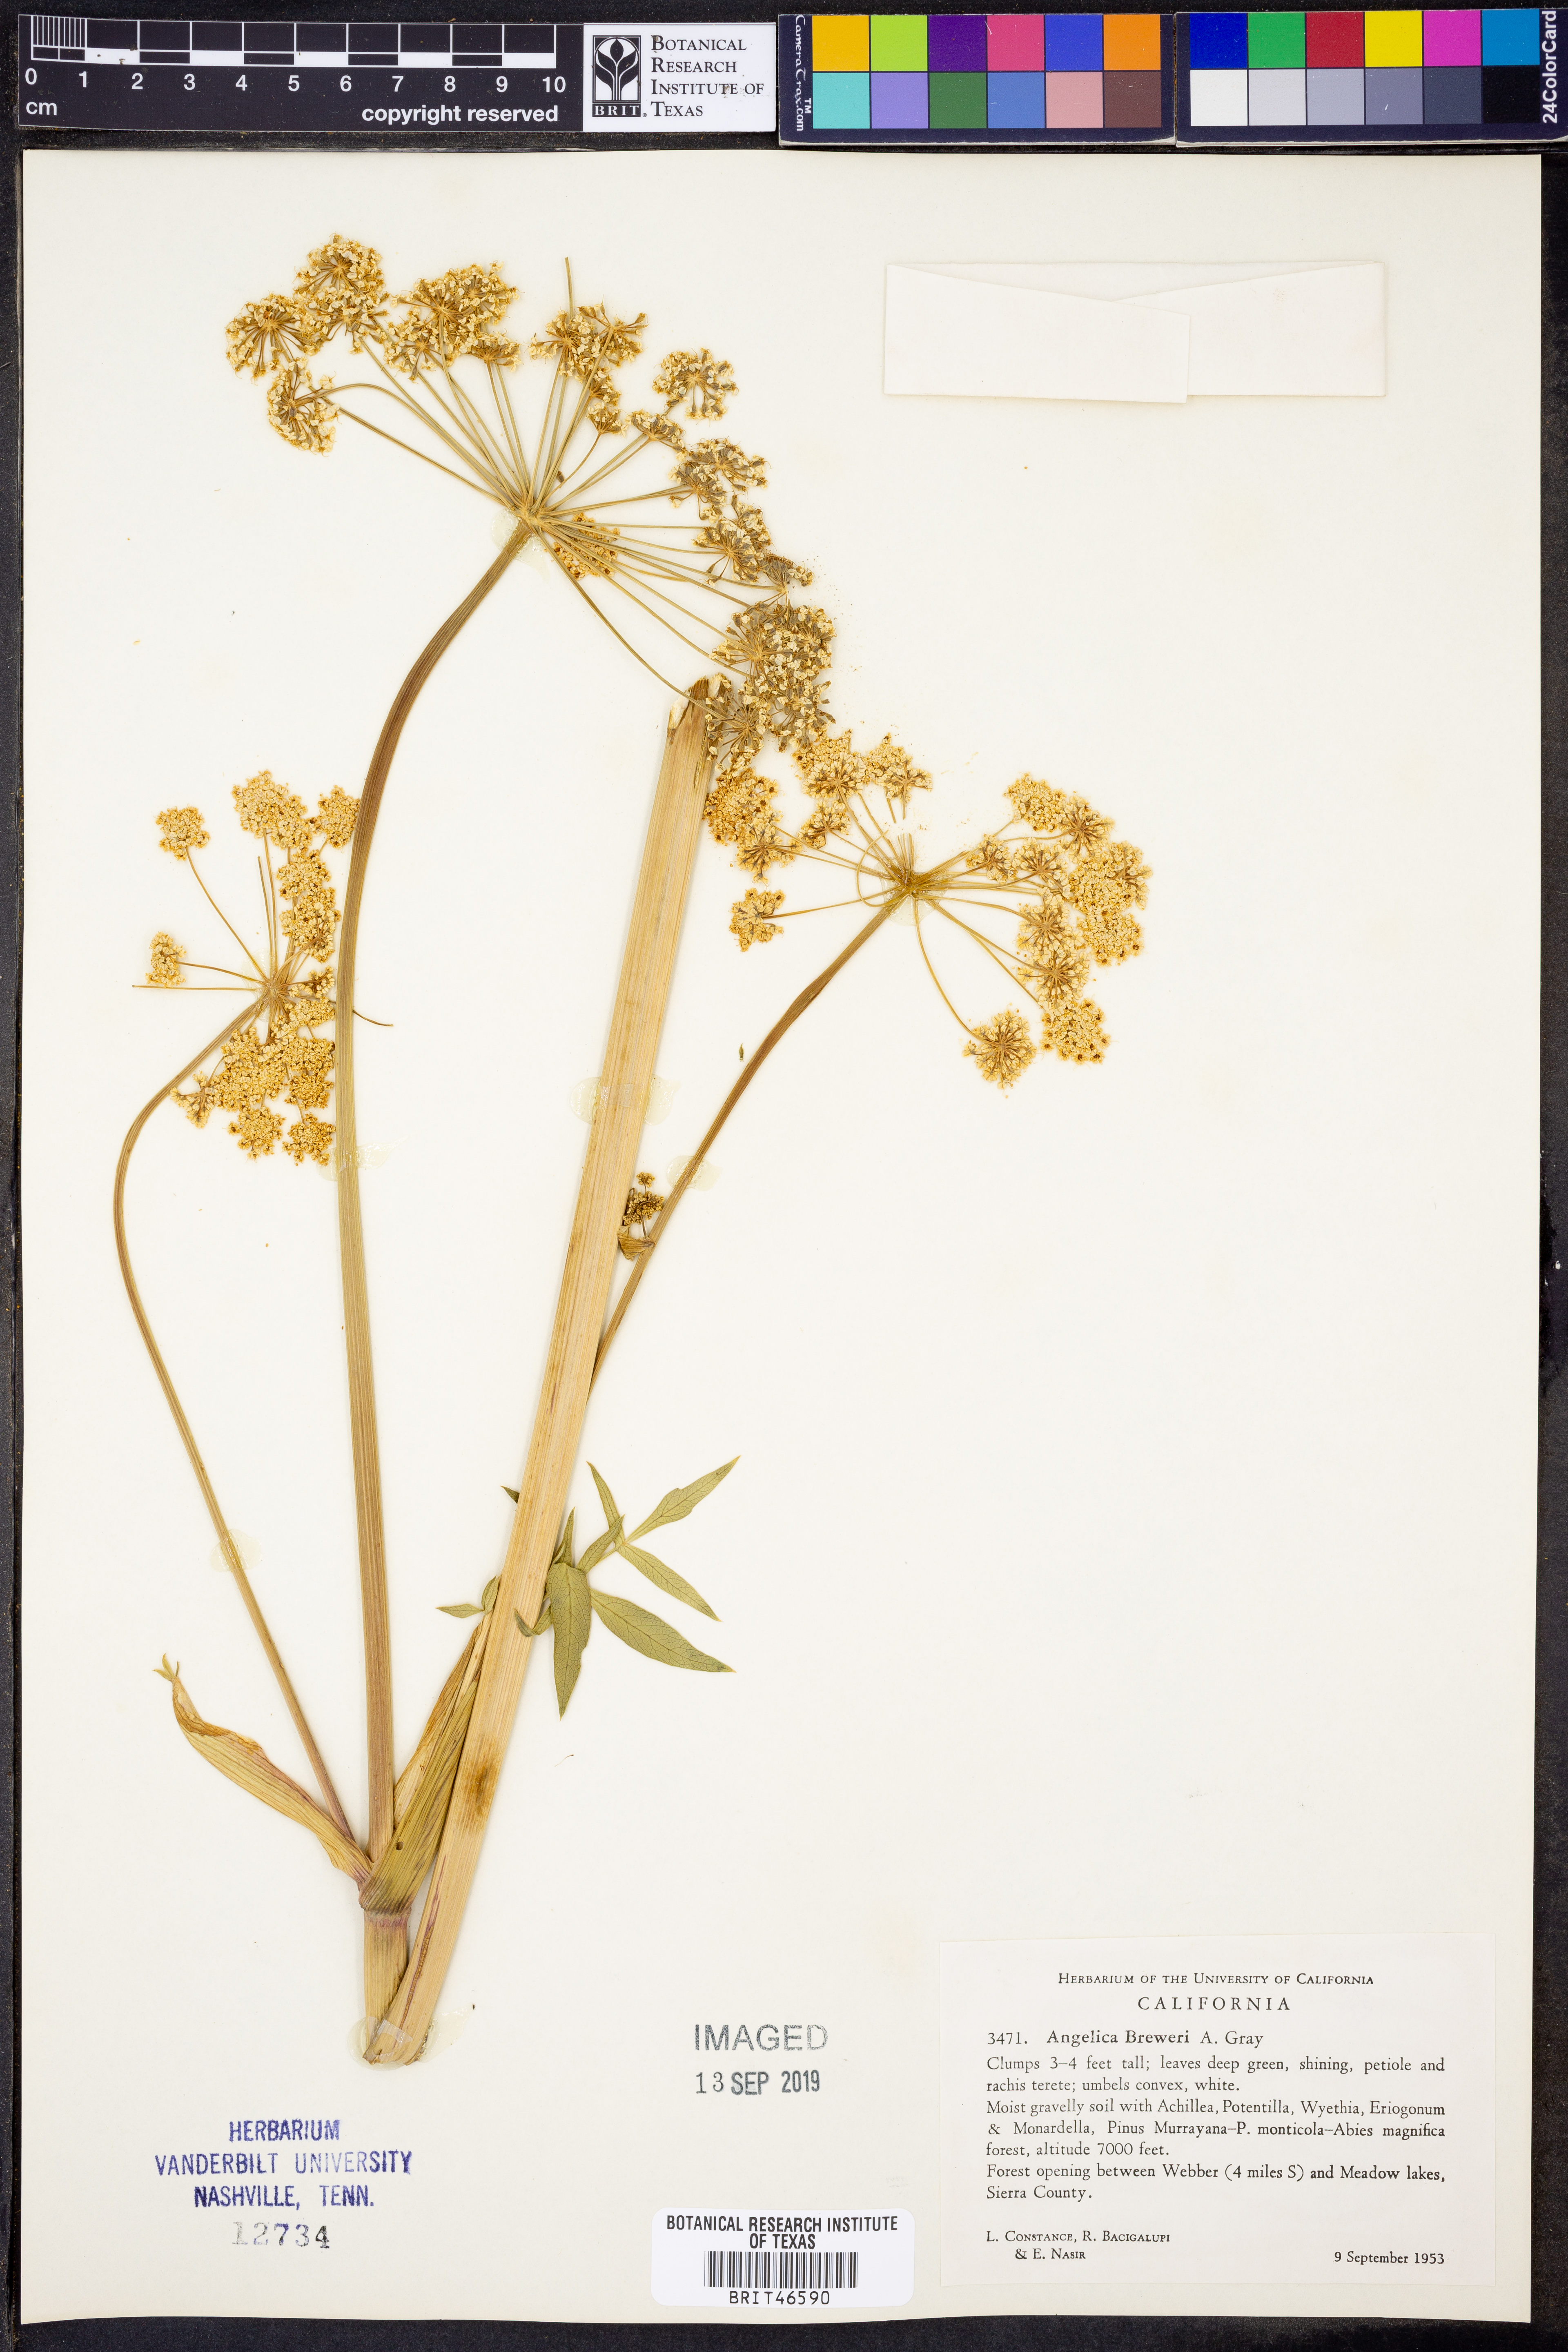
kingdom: Plantae
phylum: Tracheophyta
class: Magnoliopsida
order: Apiales
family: Apiaceae
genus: Angelica
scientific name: Angelica breweri
